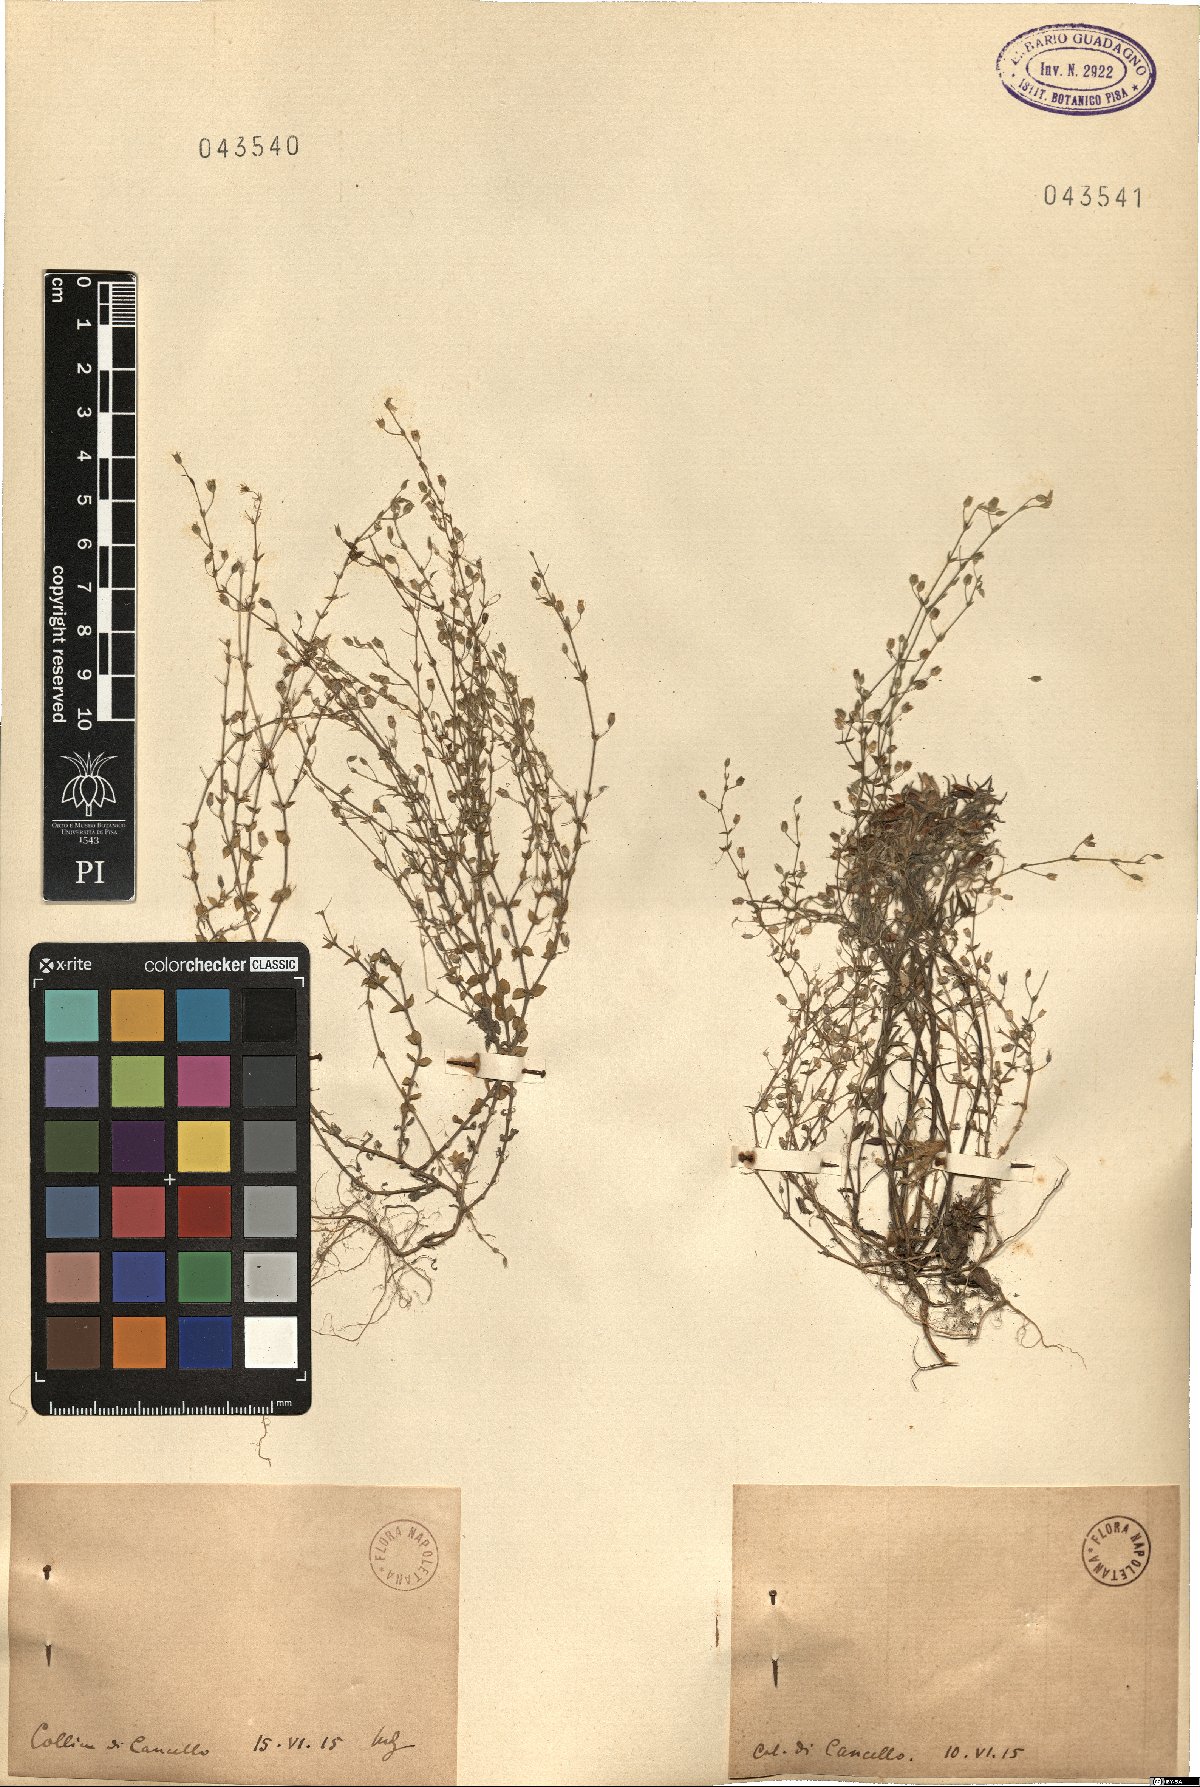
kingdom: Plantae
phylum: Tracheophyta
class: Magnoliopsida
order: Caryophyllales
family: Caryophyllaceae
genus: Arenaria
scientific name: Arenaria
